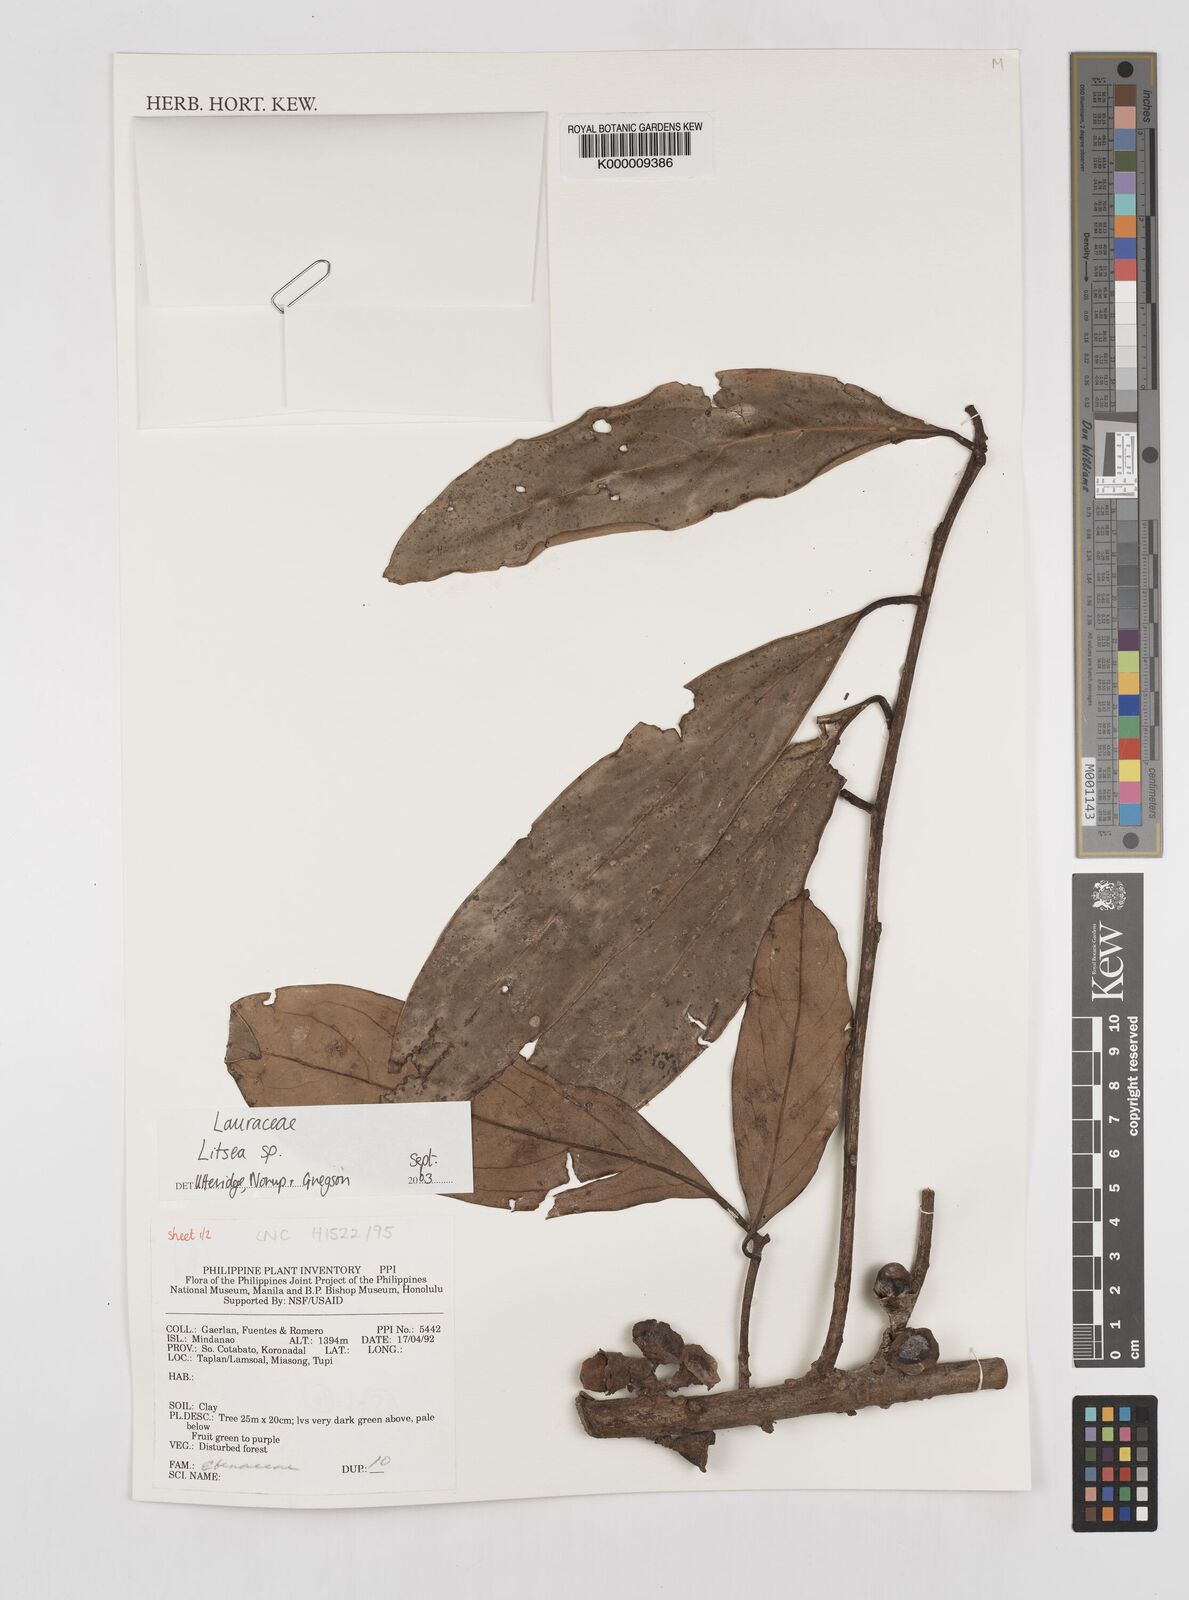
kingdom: Plantae
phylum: Tracheophyta
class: Magnoliopsida
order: Laurales
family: Lauraceae
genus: Litsea
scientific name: Litsea
